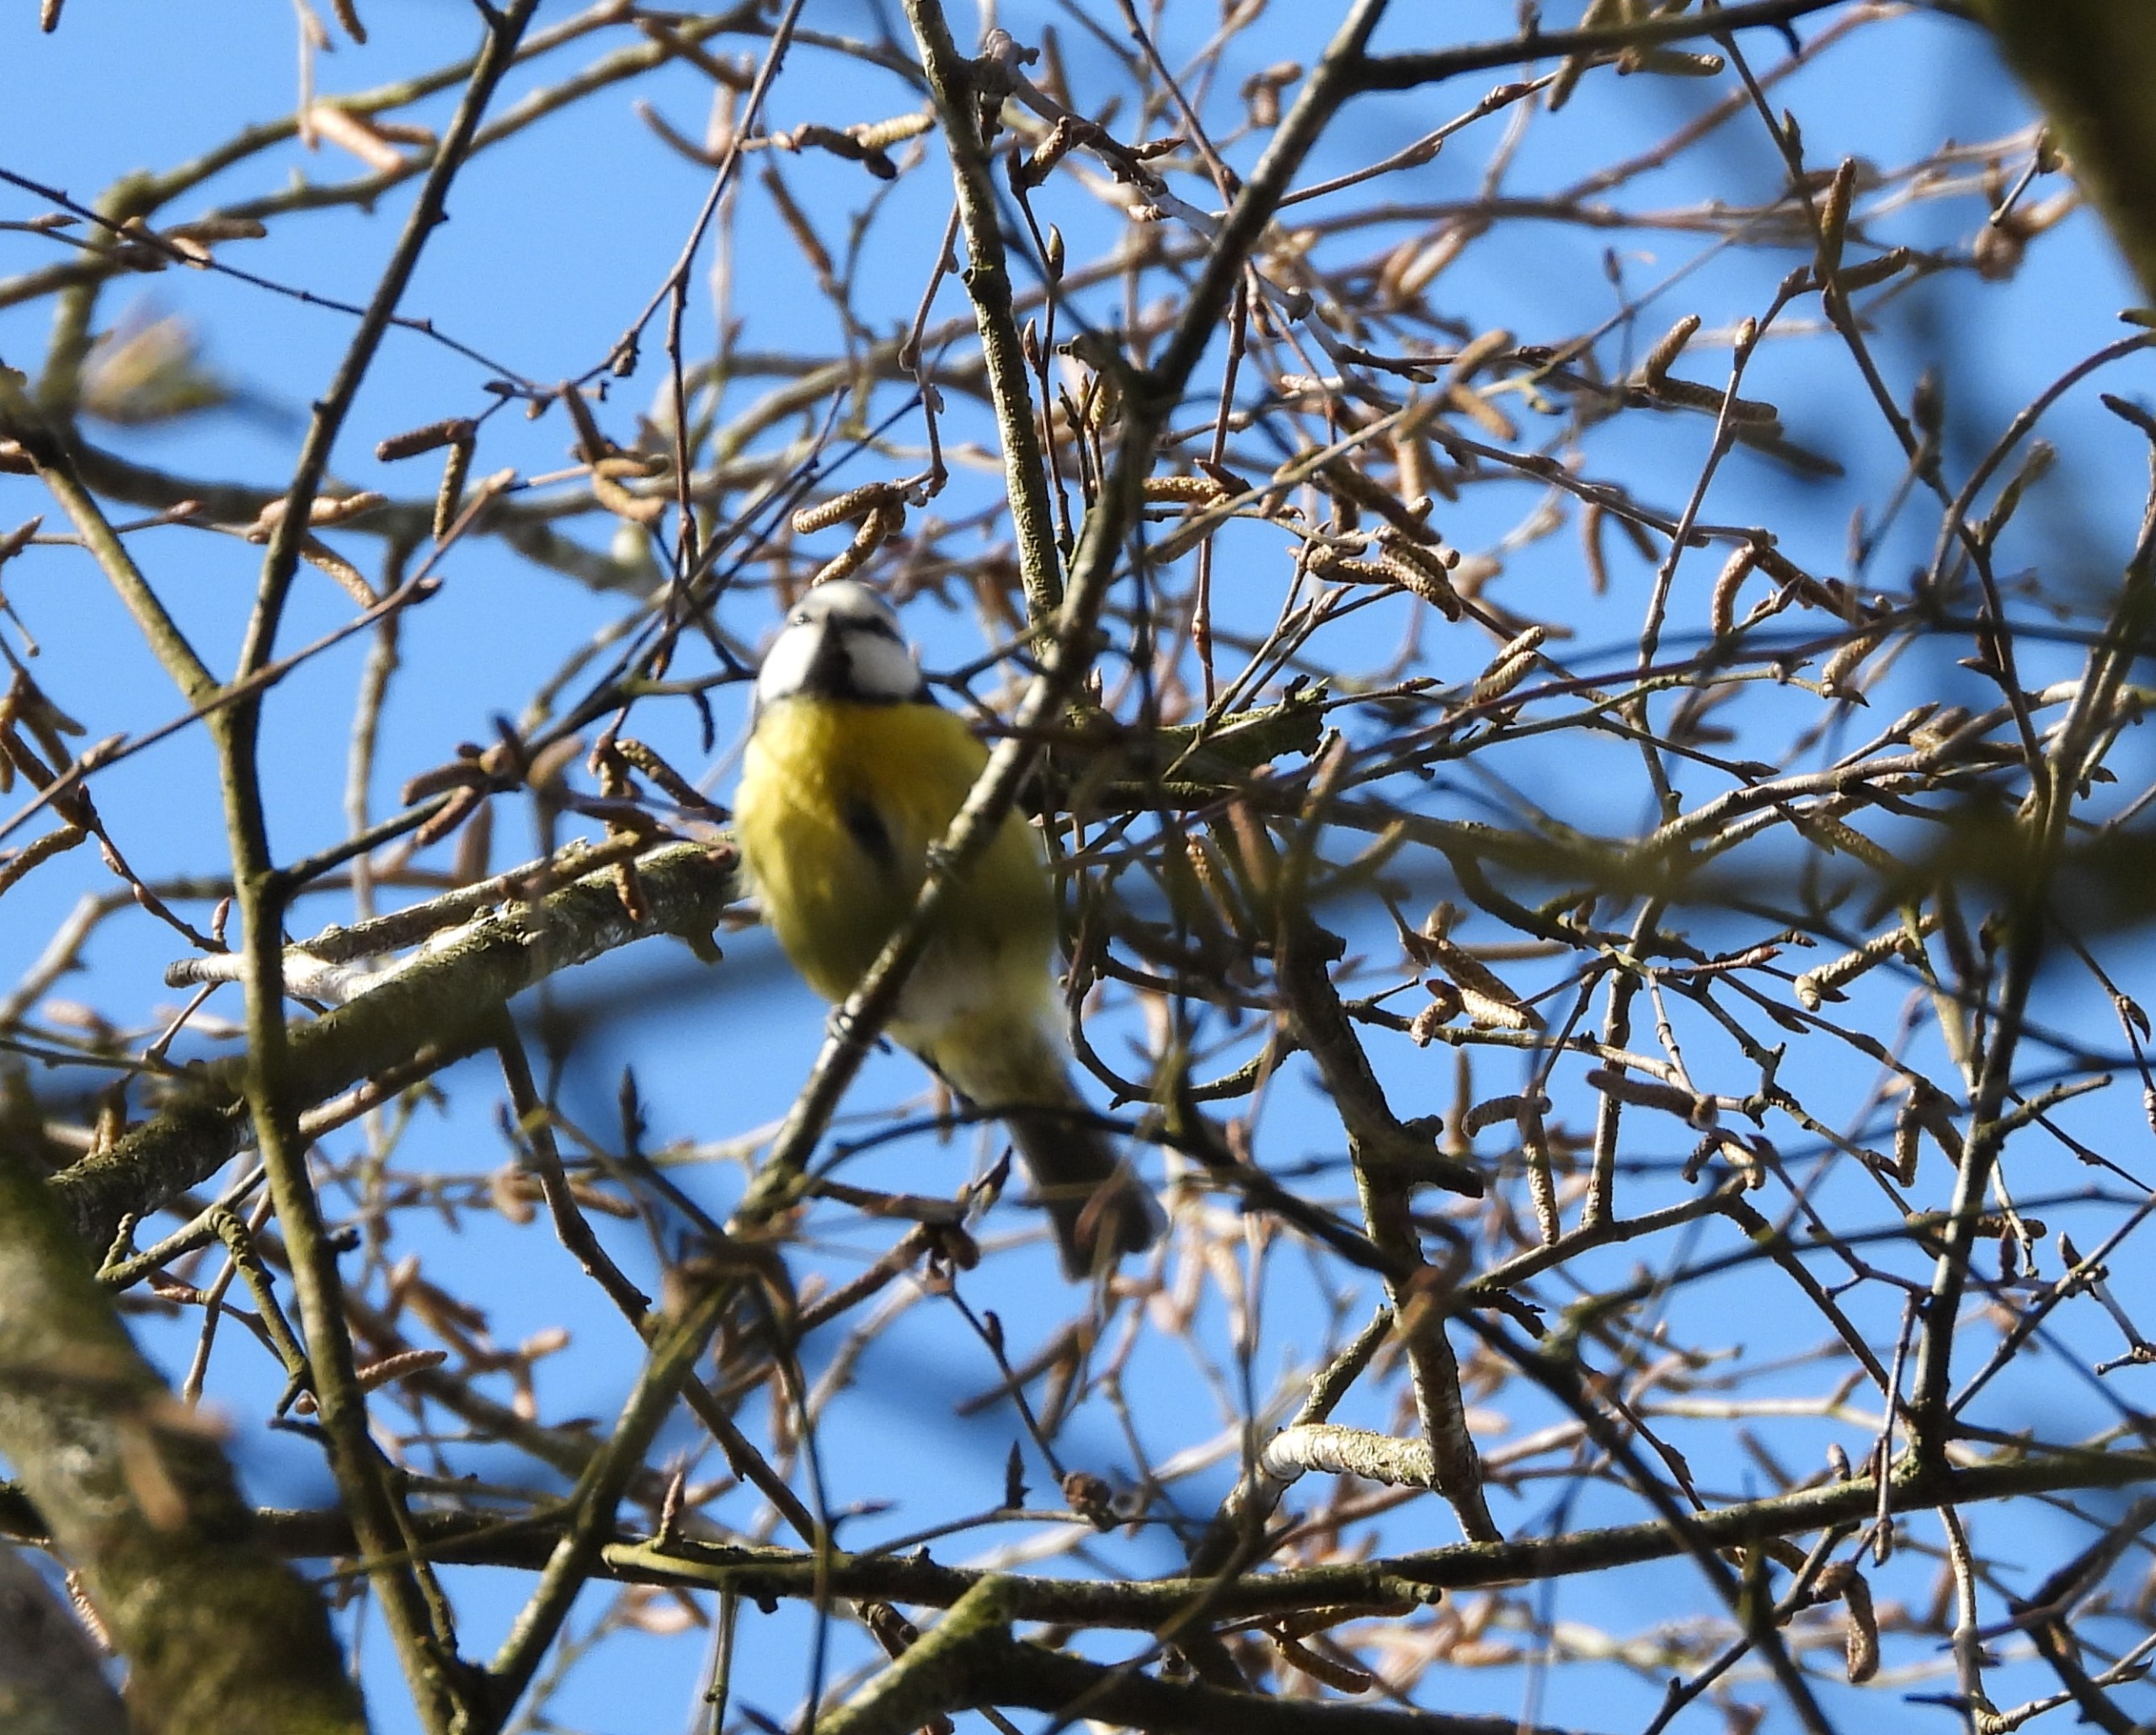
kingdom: Animalia
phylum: Chordata
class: Aves
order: Passeriformes
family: Paridae
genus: Cyanistes
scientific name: Cyanistes caeruleus
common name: Blåmejse
